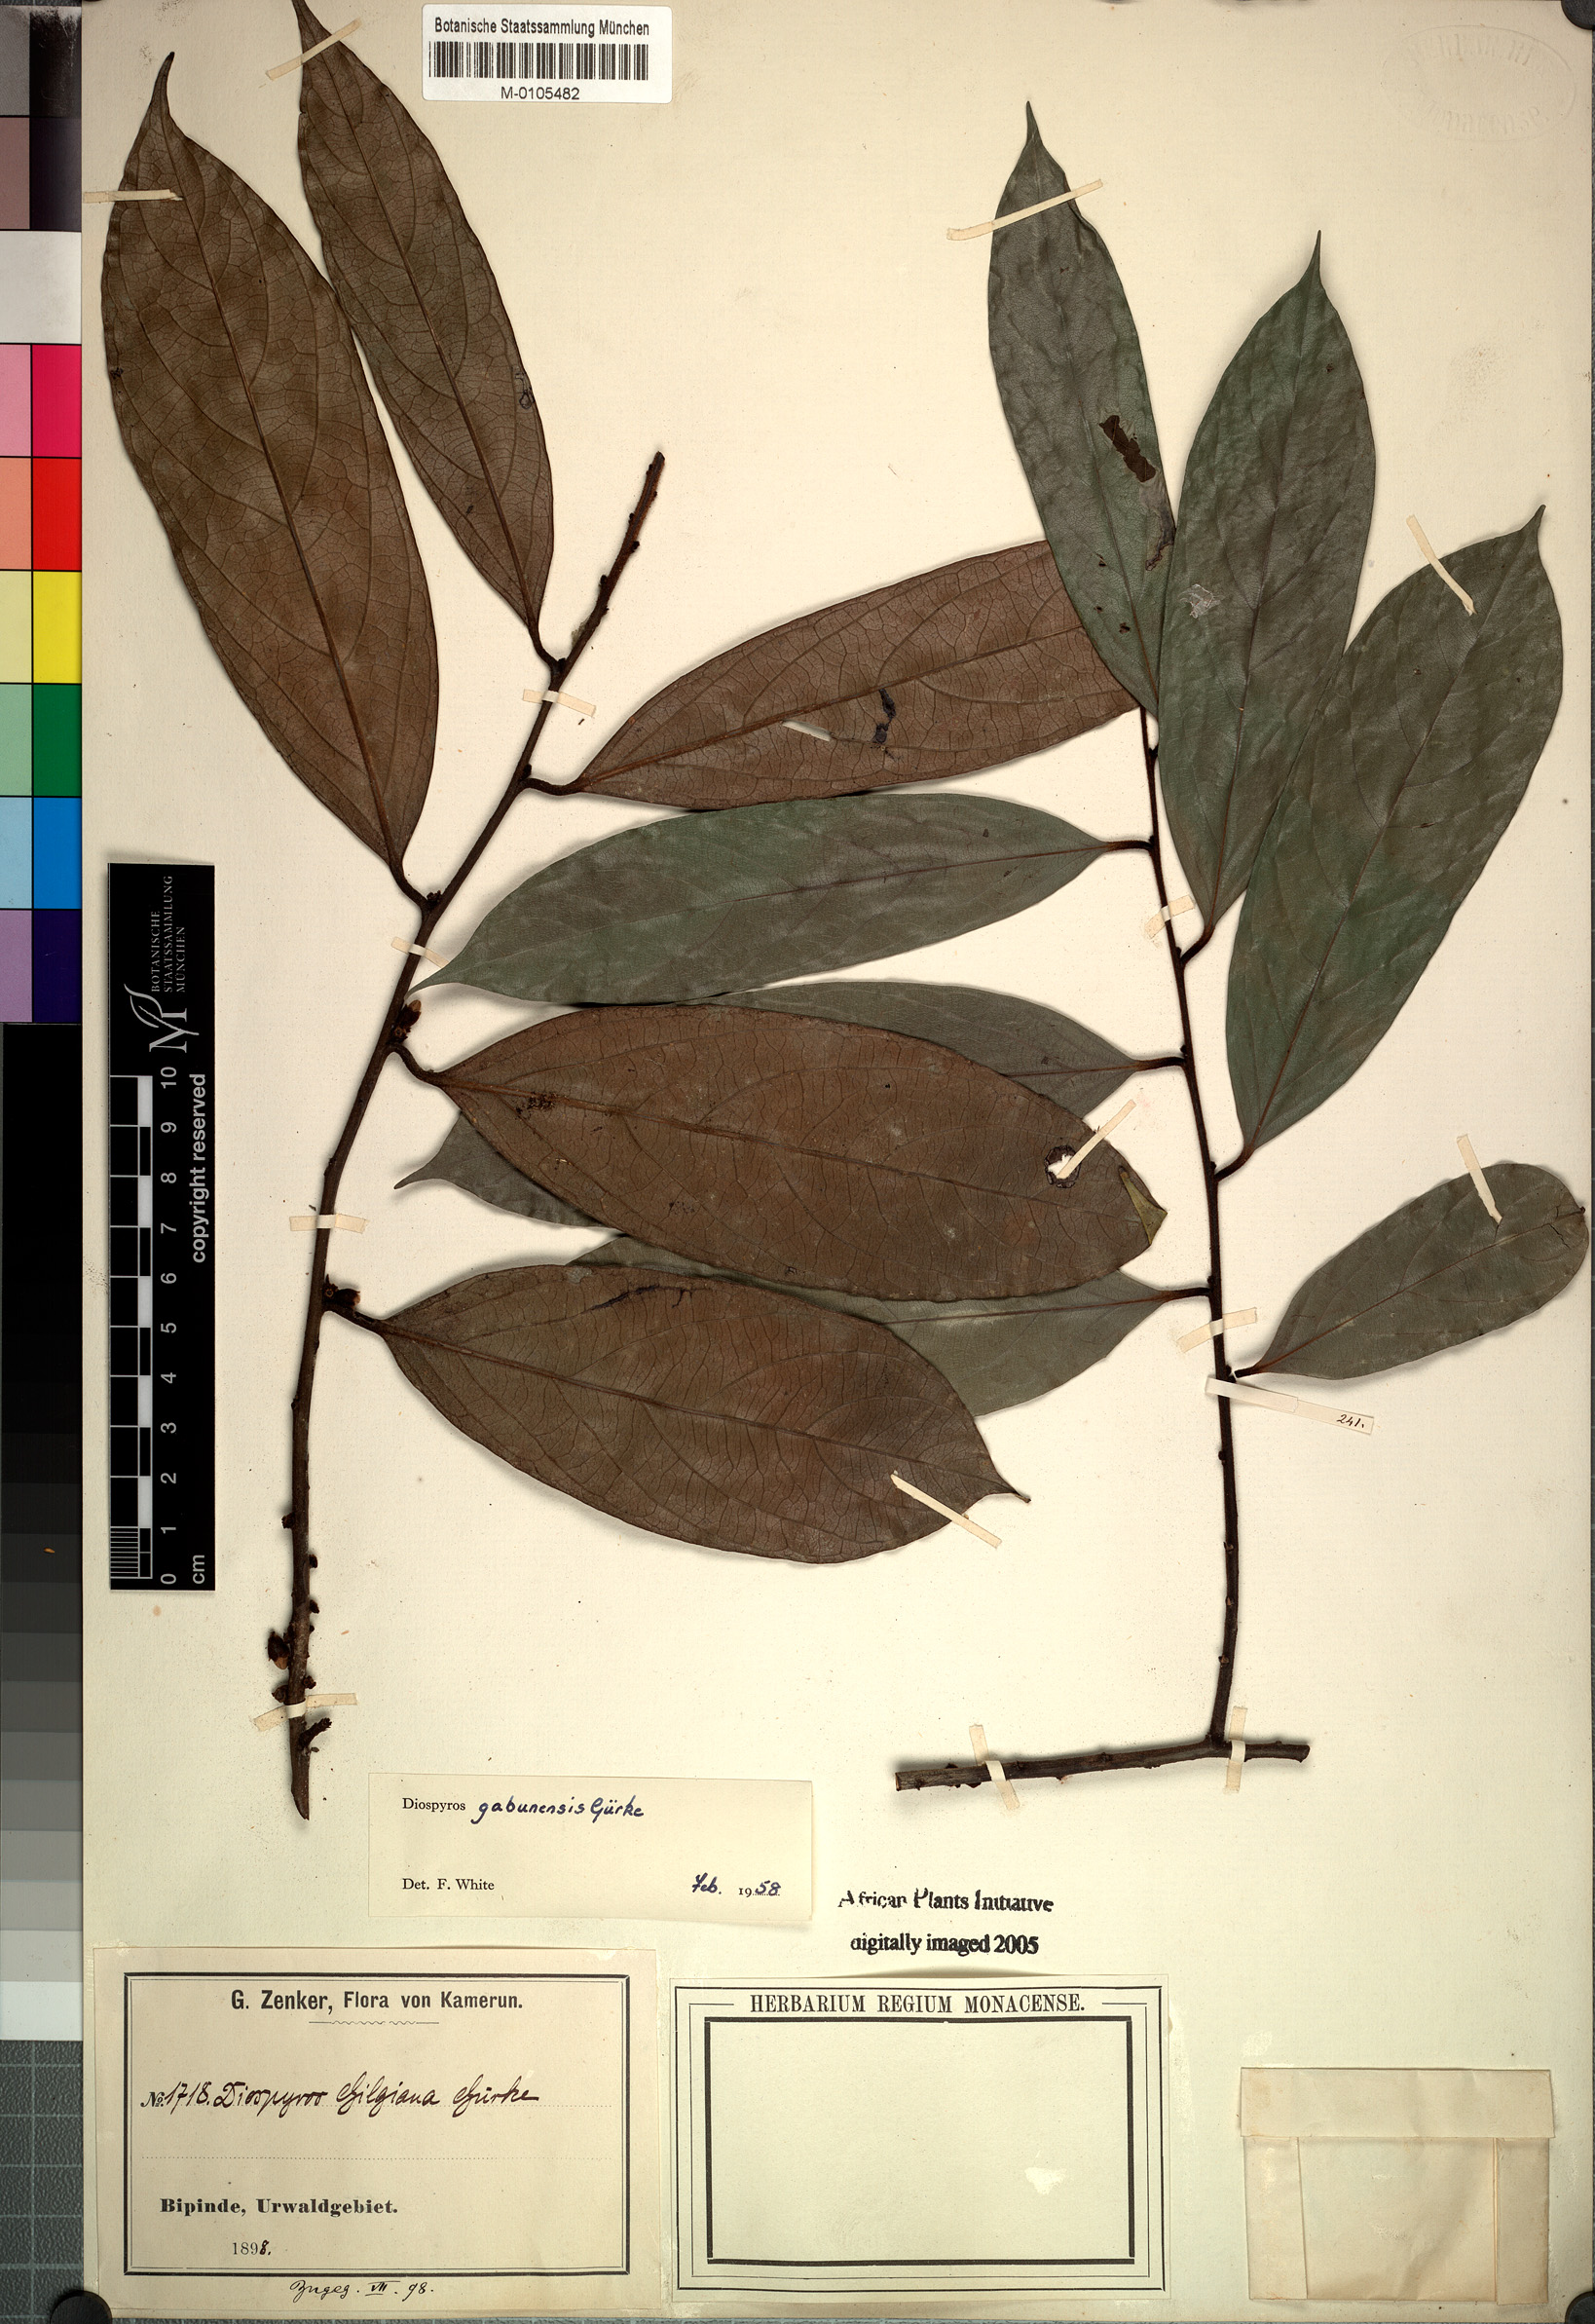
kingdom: Plantae
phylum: Tracheophyta
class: Magnoliopsida
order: Ericales
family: Ebenaceae
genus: Diospyros
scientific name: Diospyros gabunensis
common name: Flint bark tree
